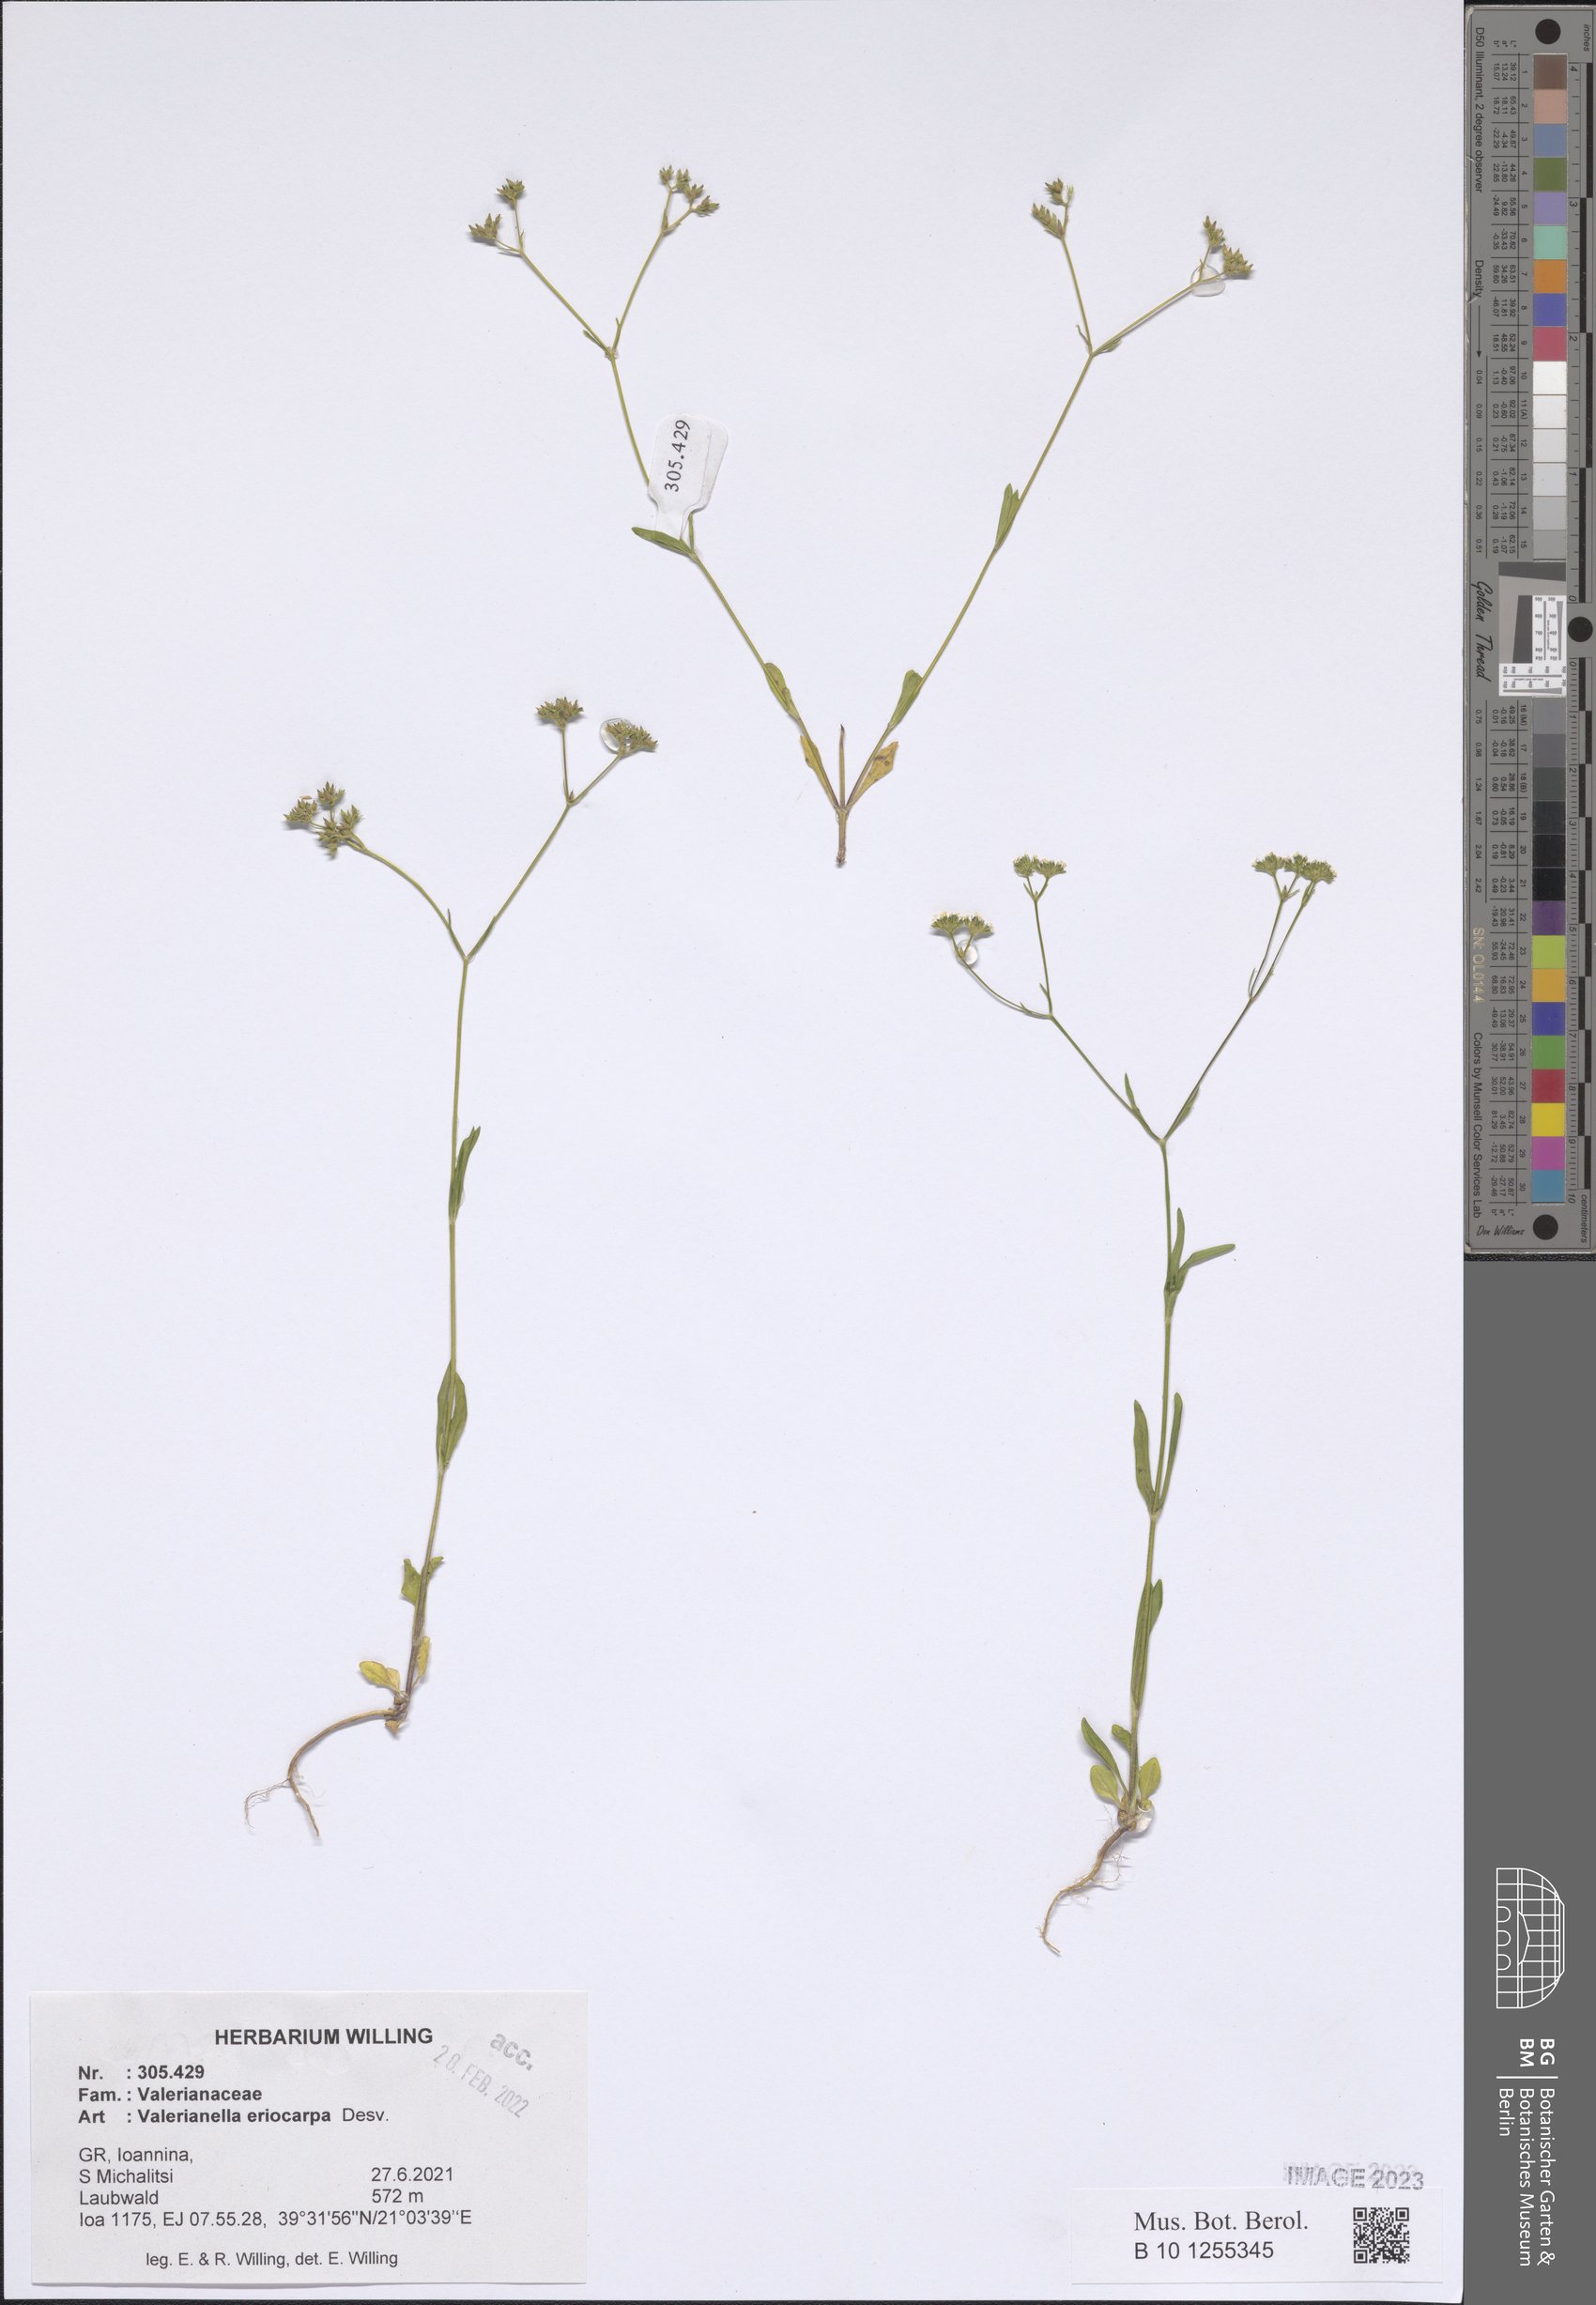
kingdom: Plantae
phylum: Tracheophyta
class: Magnoliopsida
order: Dipsacales
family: Caprifoliaceae
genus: Valerianella
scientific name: Valerianella eriocarpa
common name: Hairy-fruited cornsalad
